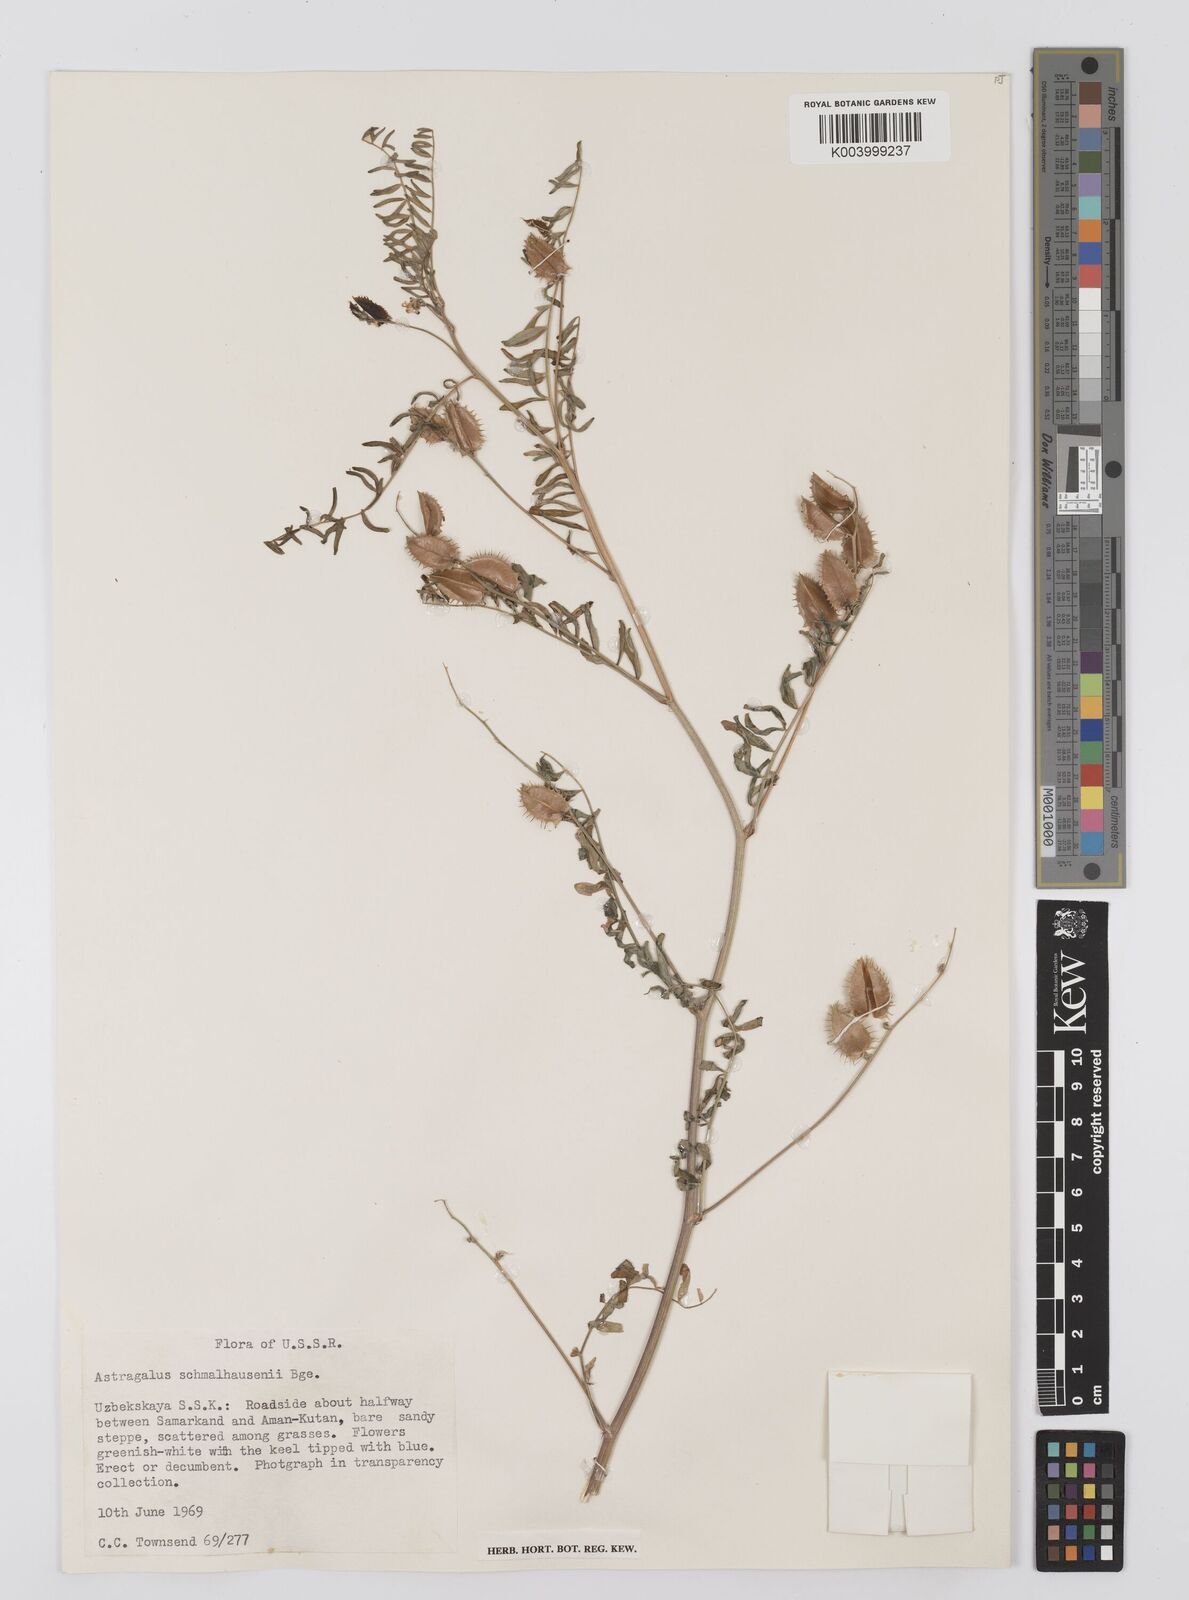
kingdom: Plantae
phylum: Tracheophyta
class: Magnoliopsida
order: Fabales
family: Fabaceae
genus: Astragalus
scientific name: Astragalus schmalhausenii
